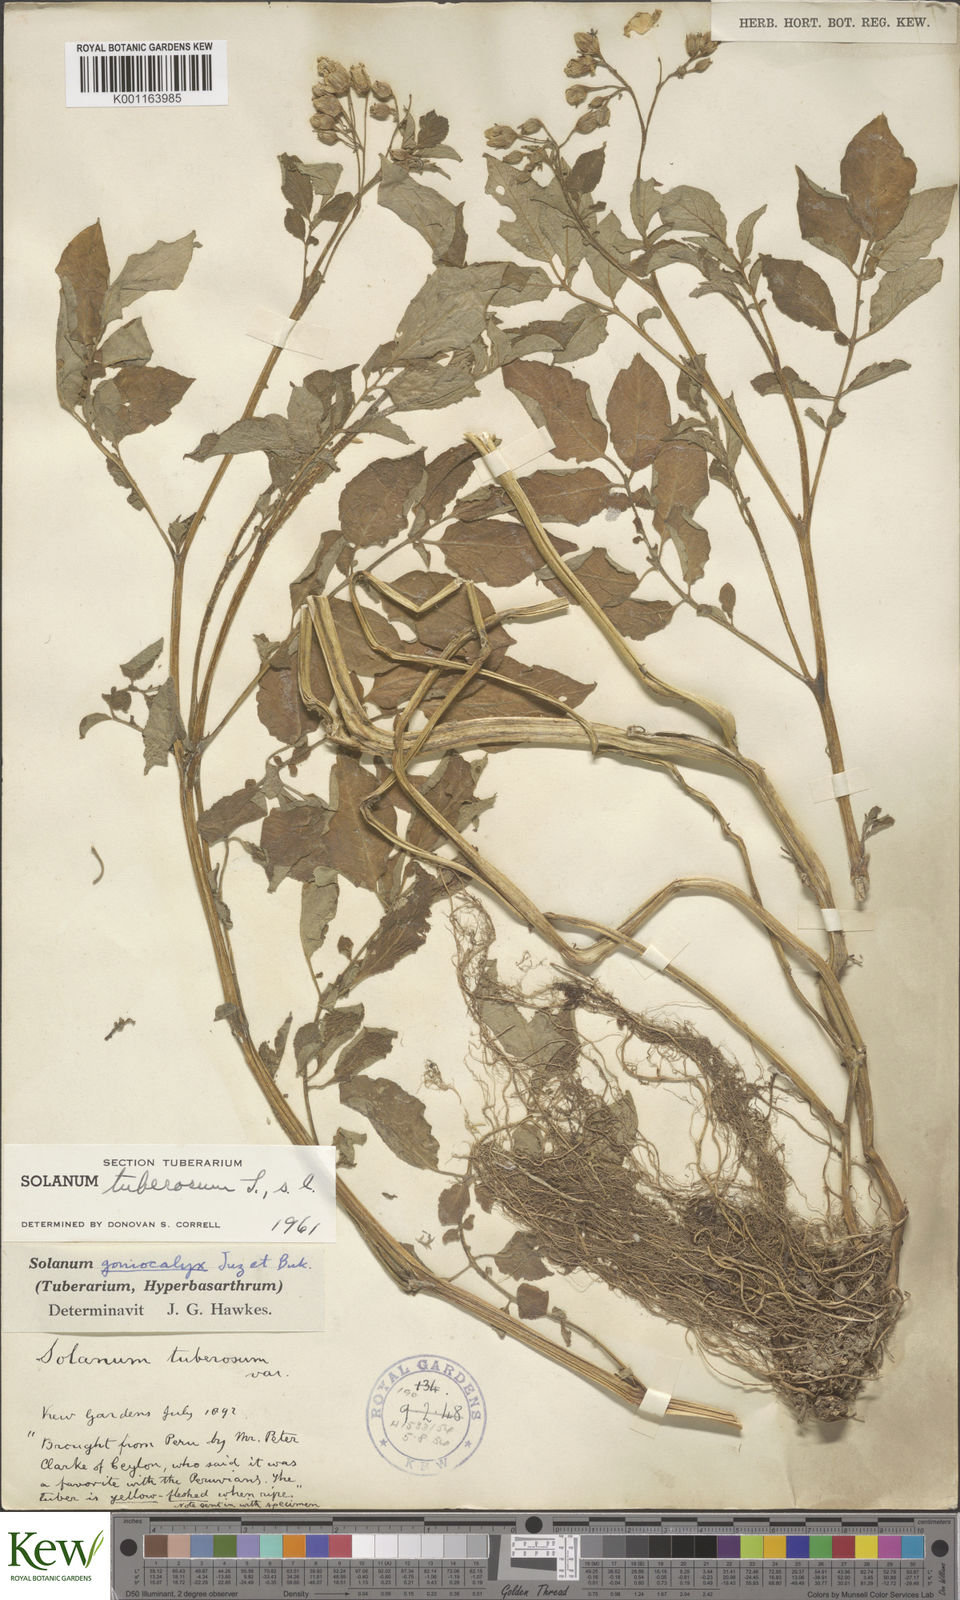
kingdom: Plantae
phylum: Tracheophyta
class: Magnoliopsida
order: Solanales
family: Solanaceae
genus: Solanum
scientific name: Solanum tuberosum
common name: Potato
